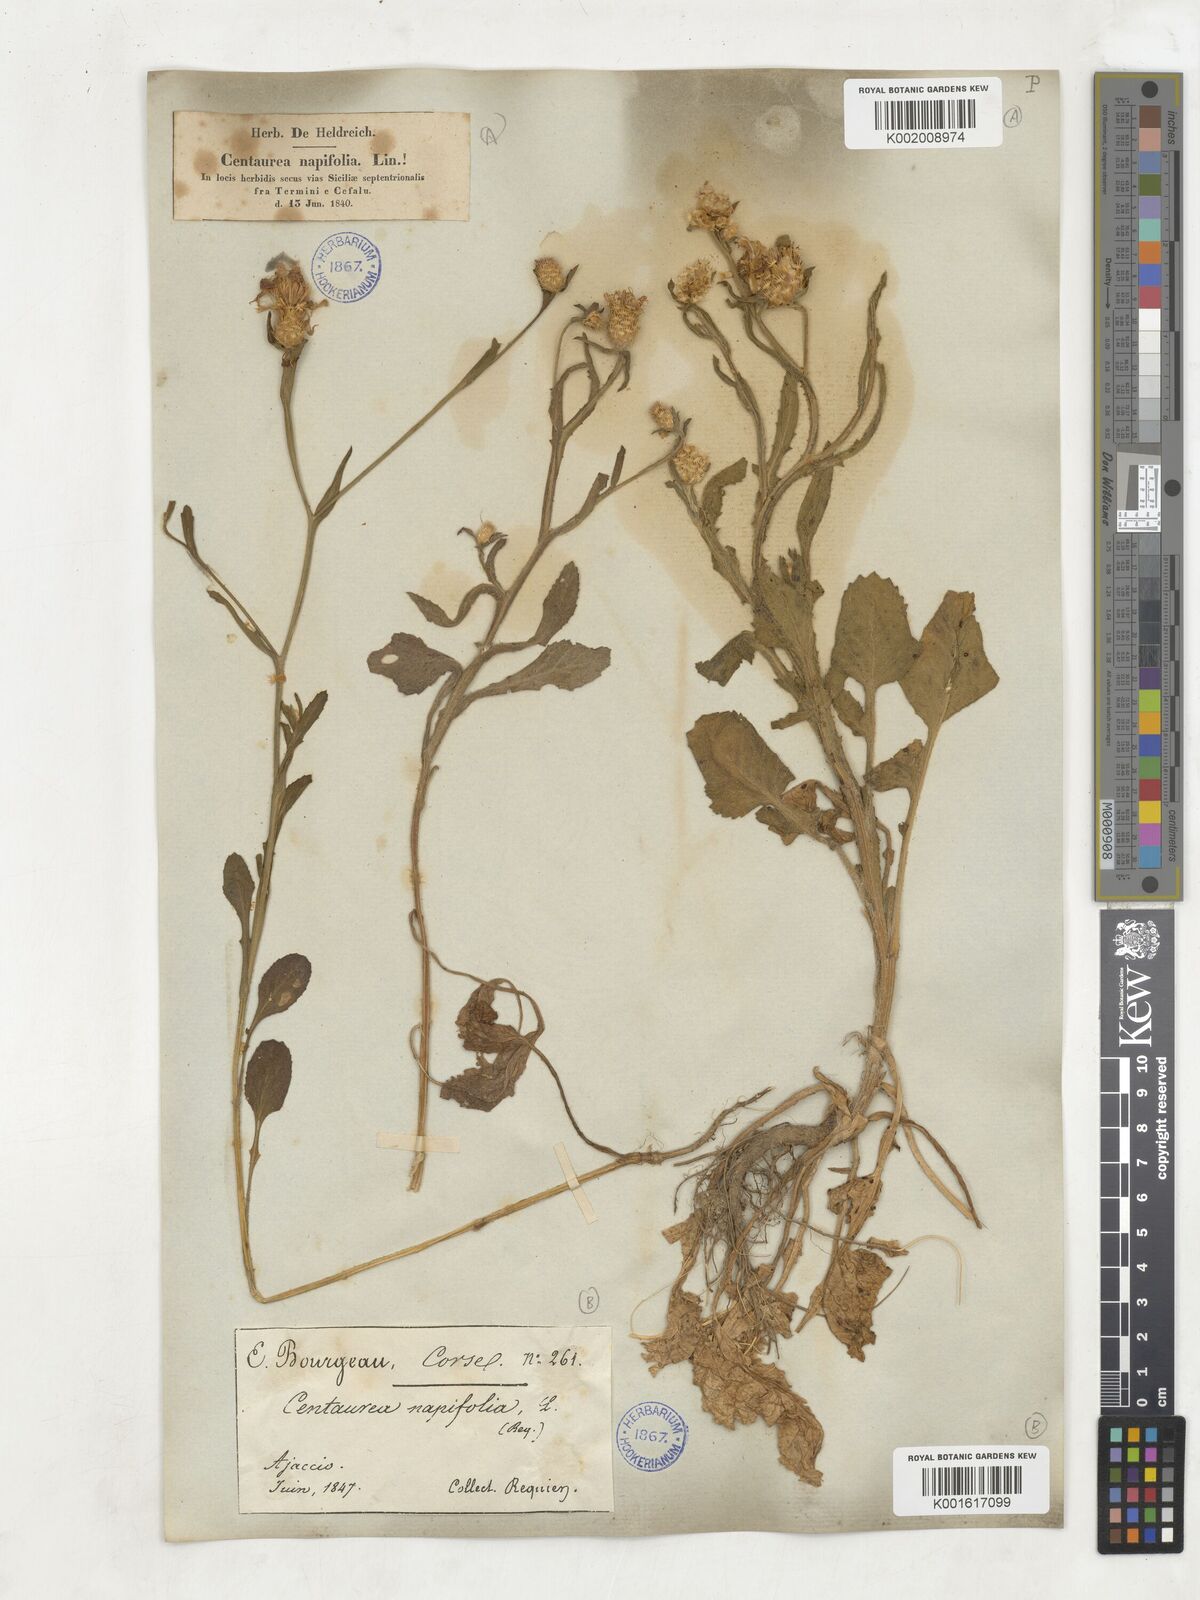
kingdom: Plantae
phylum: Tracheophyta
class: Magnoliopsida
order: Asterales
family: Asteraceae
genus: Centaurea
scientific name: Centaurea napifolia
